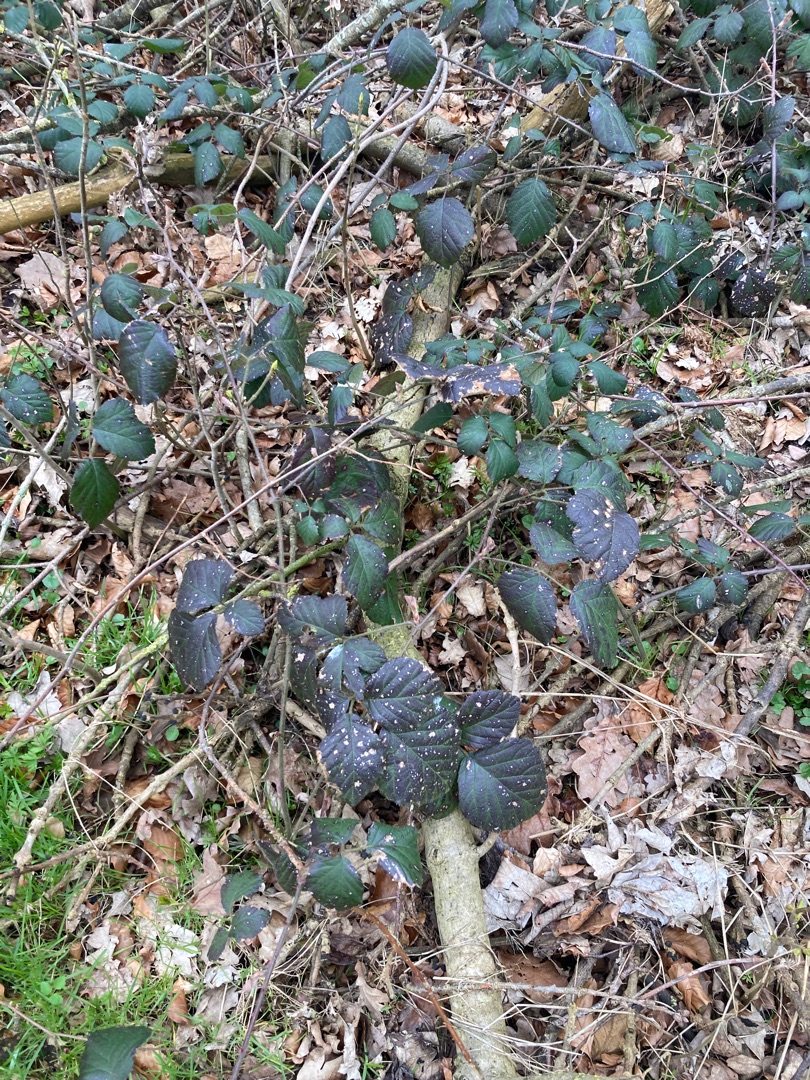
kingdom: Plantae
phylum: Tracheophyta
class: Magnoliopsida
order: Rosales
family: Rosaceae
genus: Rubus
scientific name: Rubus
